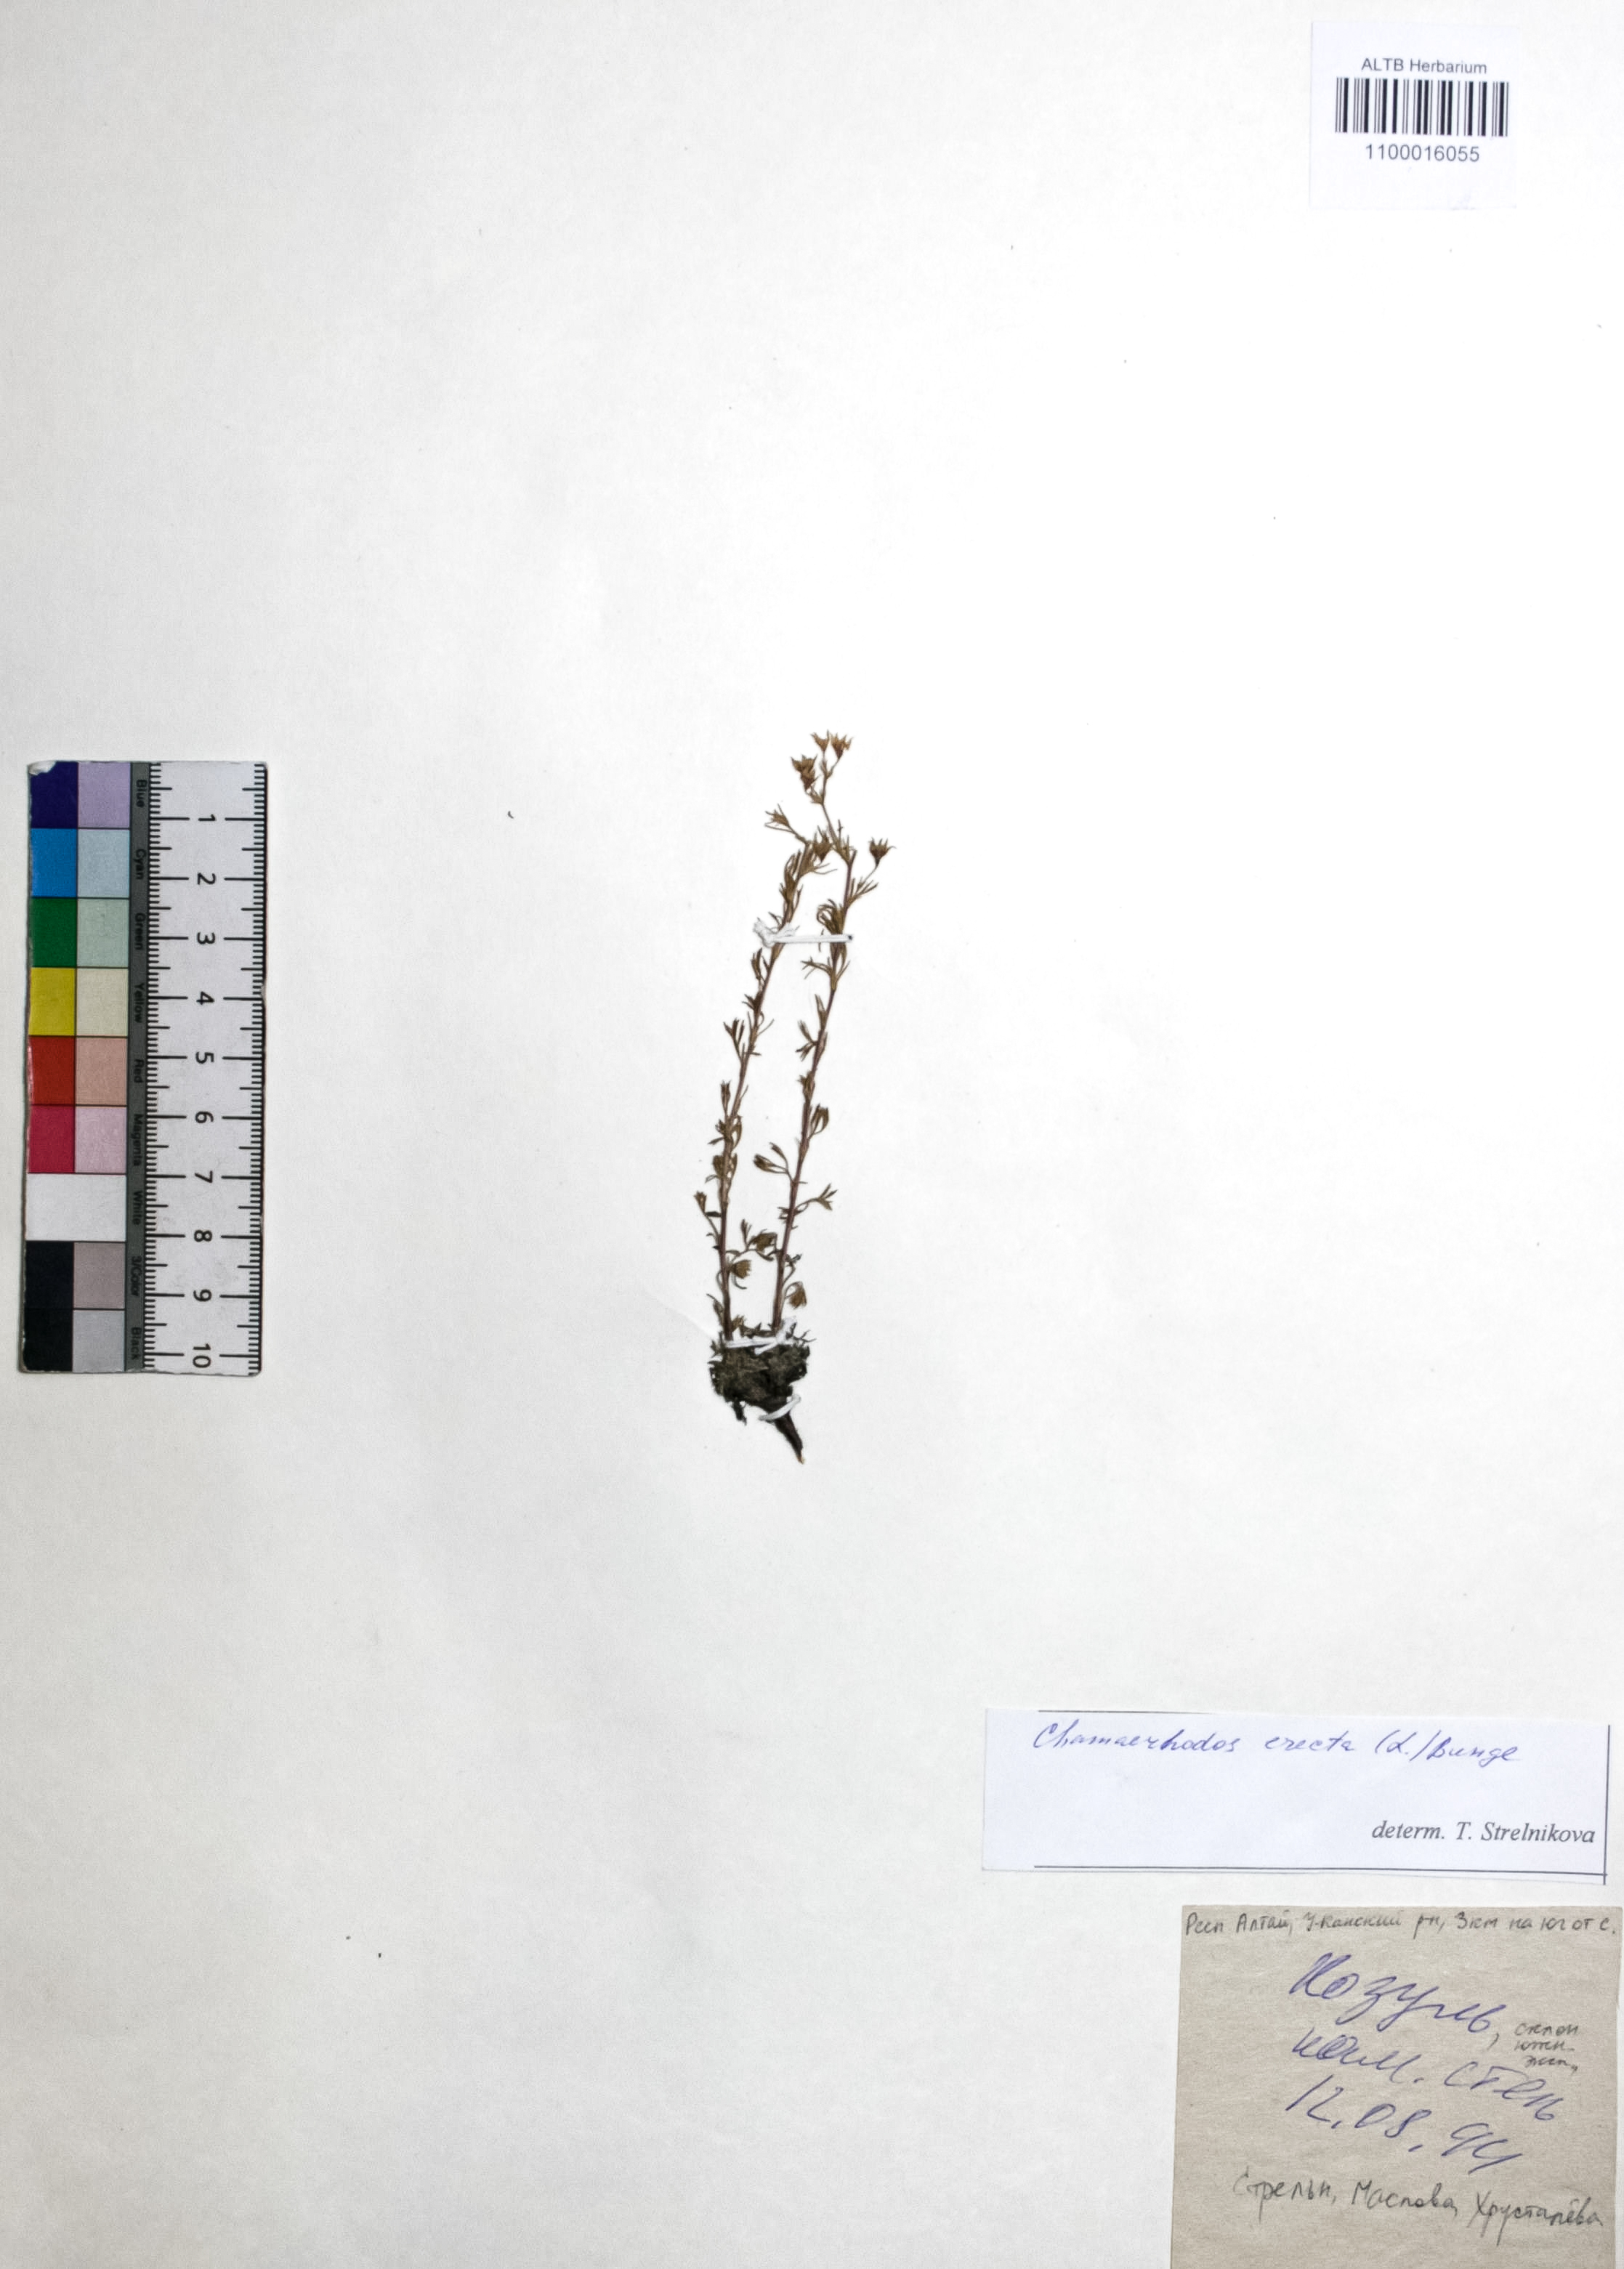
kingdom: Plantae
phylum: Tracheophyta
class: Magnoliopsida
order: Rosales
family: Rosaceae
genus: Chamaerhodos
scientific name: Chamaerhodos erecta
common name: American chamaerhodos
